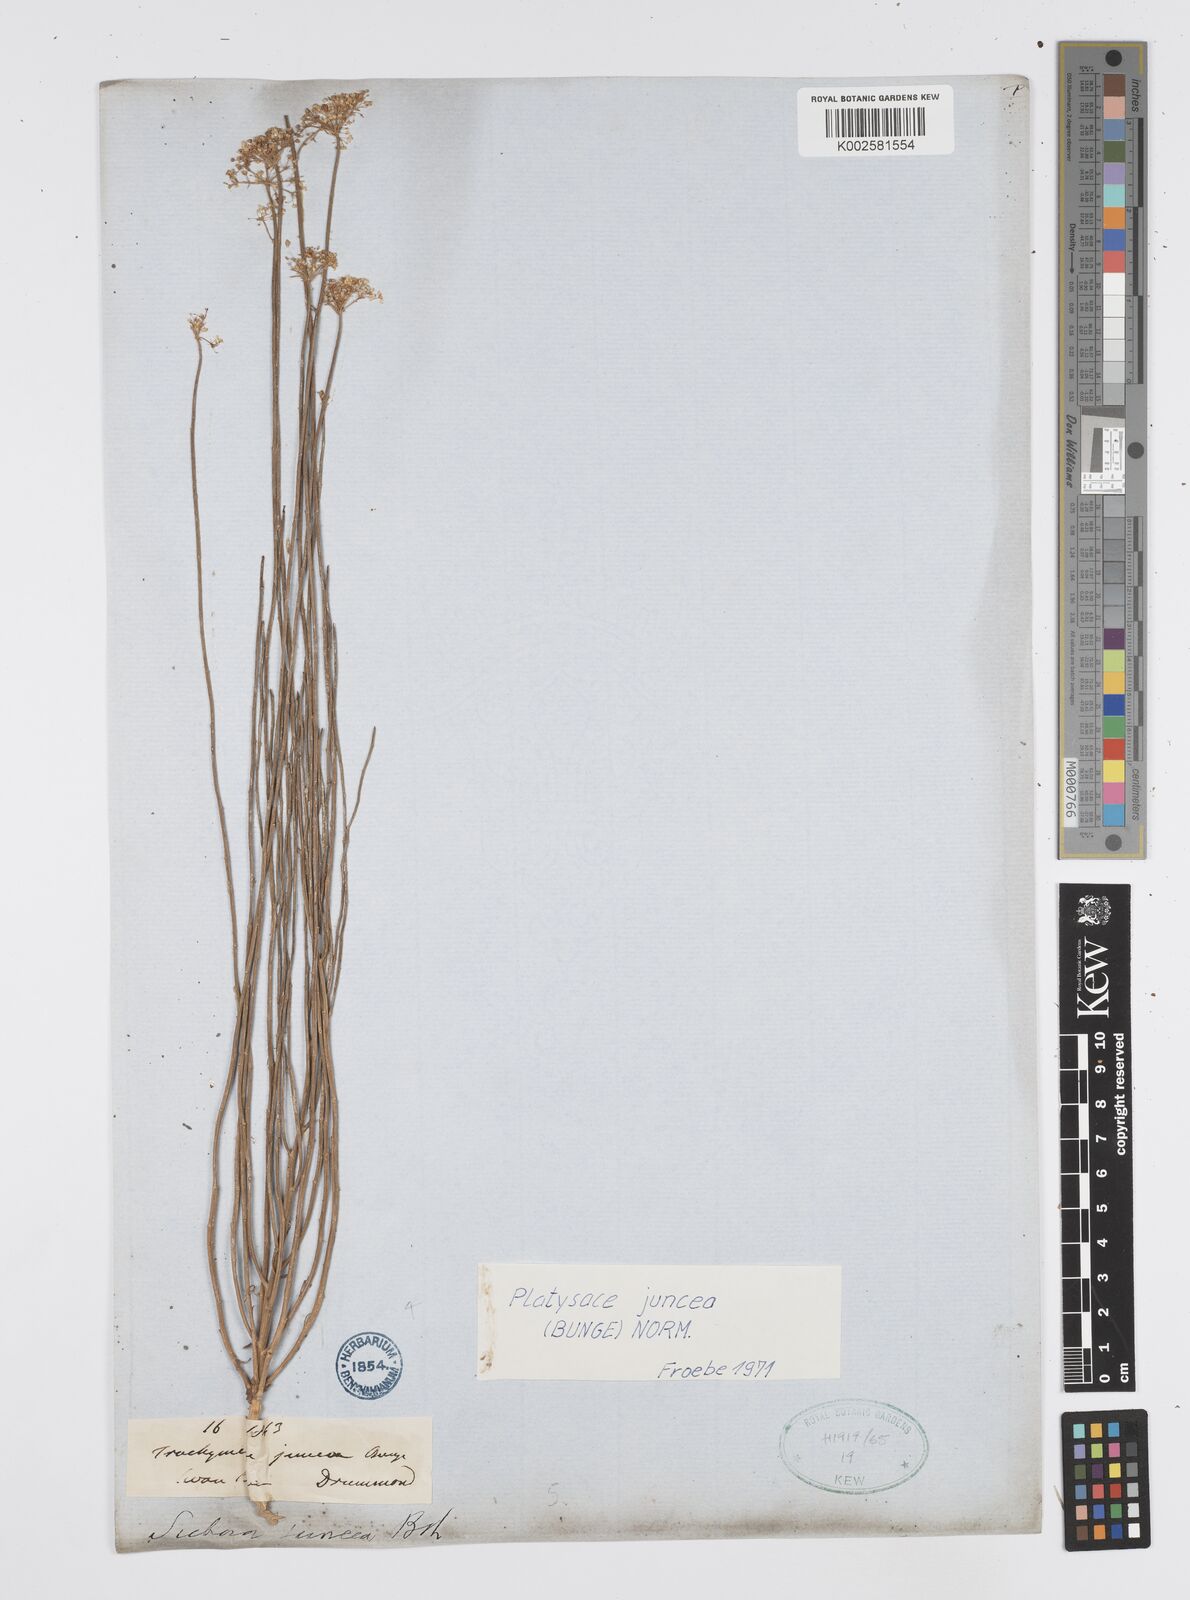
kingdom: Plantae
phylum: Tracheophyta
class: Magnoliopsida
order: Apiales
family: Apiaceae
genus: Platysace
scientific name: Platysace juncea
